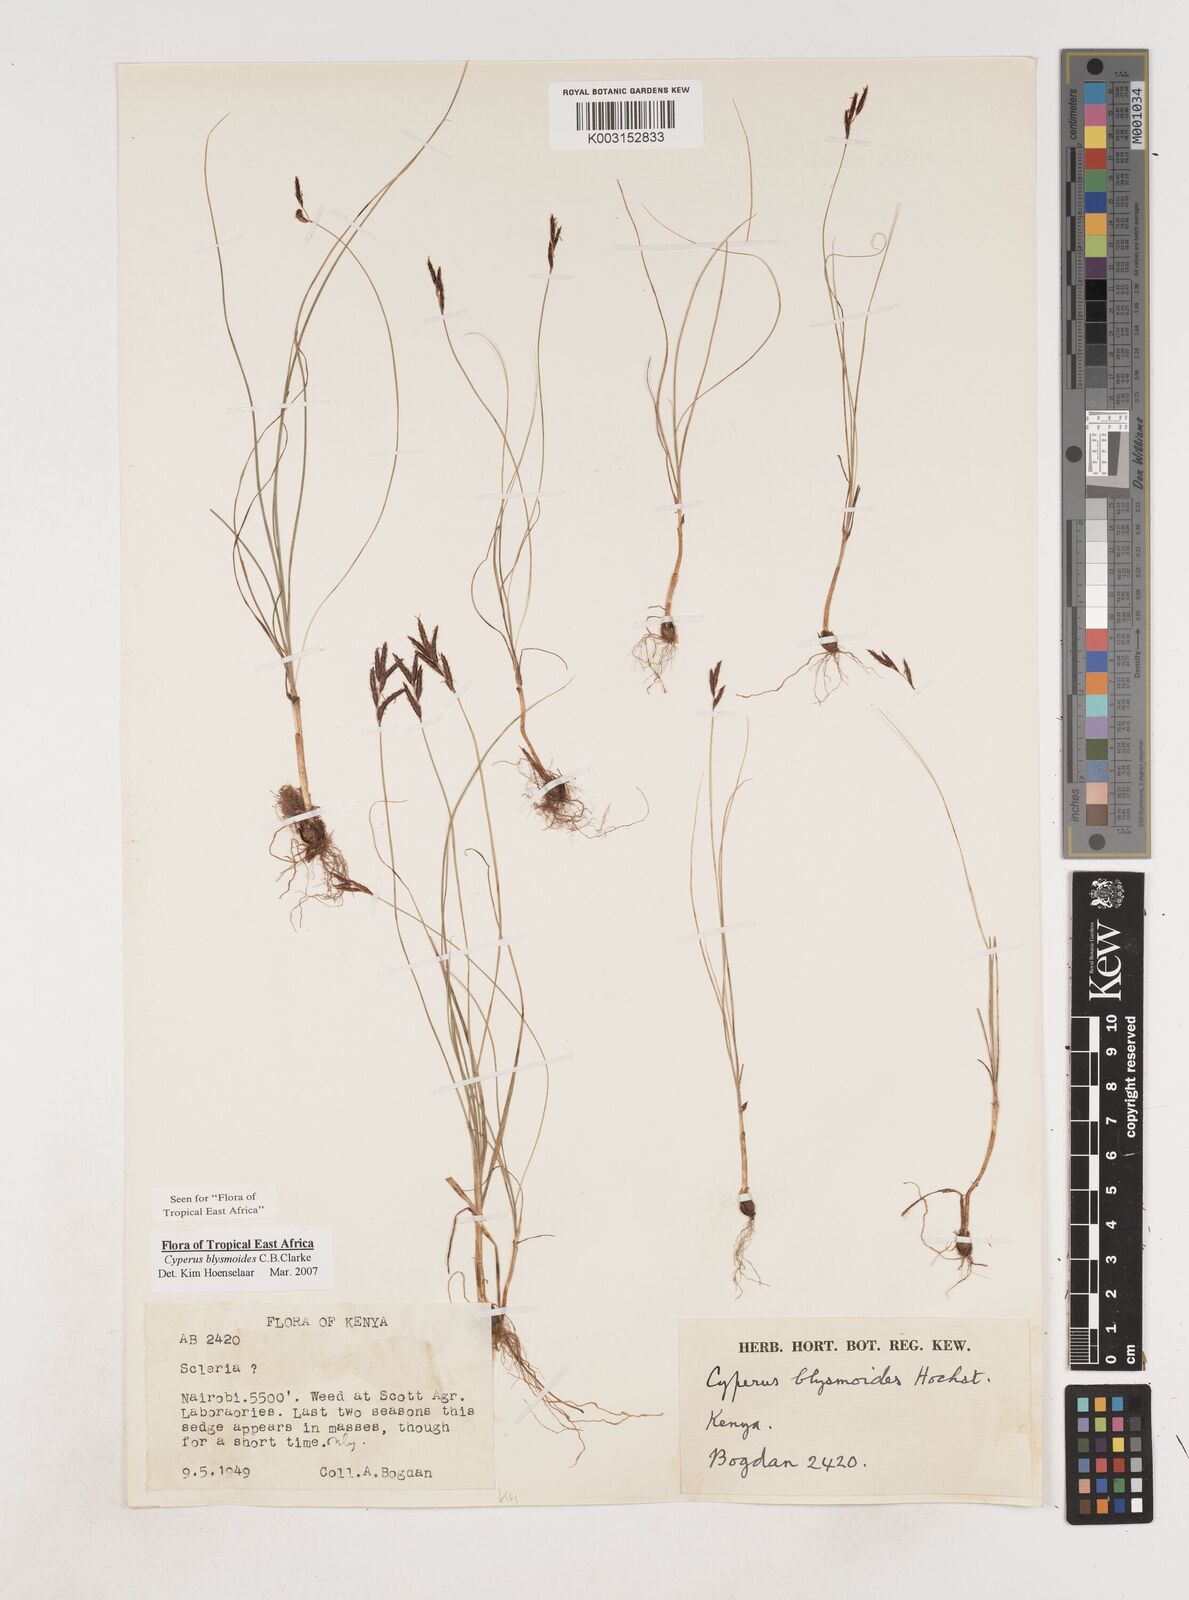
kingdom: Plantae
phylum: Tracheophyta
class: Liliopsida
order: Poales
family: Cyperaceae
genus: Cyperus
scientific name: Cyperus blysmoides
